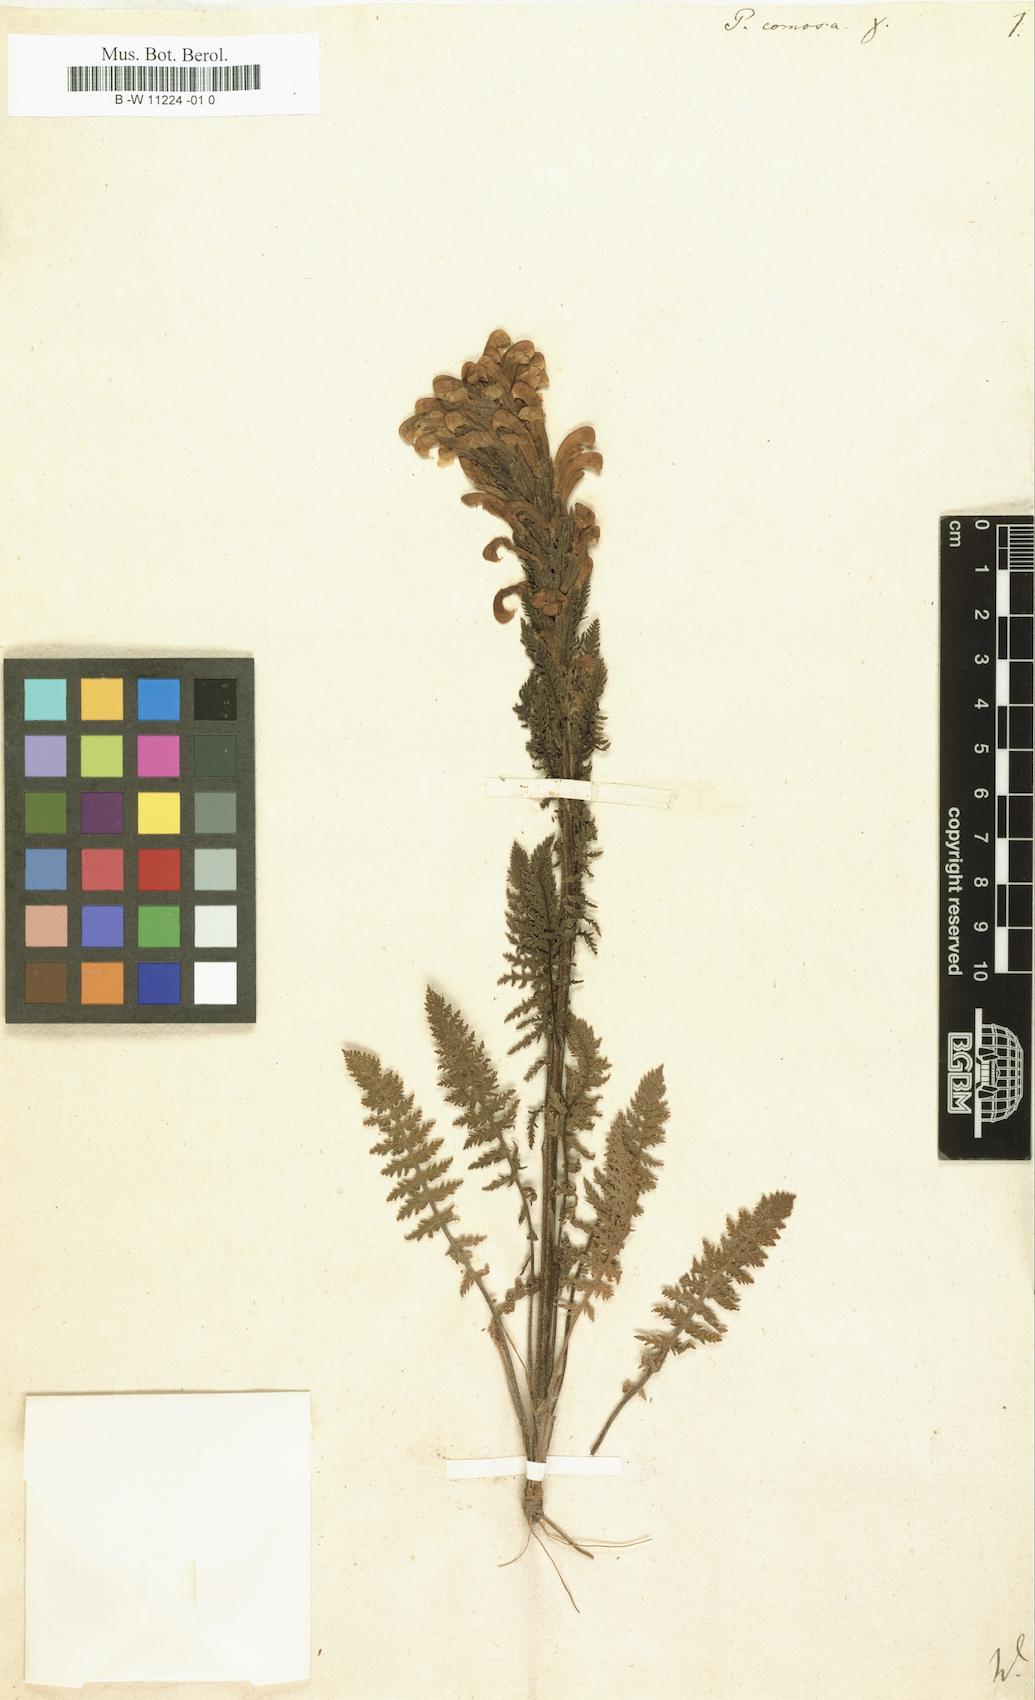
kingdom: Plantae
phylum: Tracheophyta
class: Magnoliopsida
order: Lamiales
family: Orobanchaceae
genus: Pedicularis
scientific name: Pedicularis comosa
